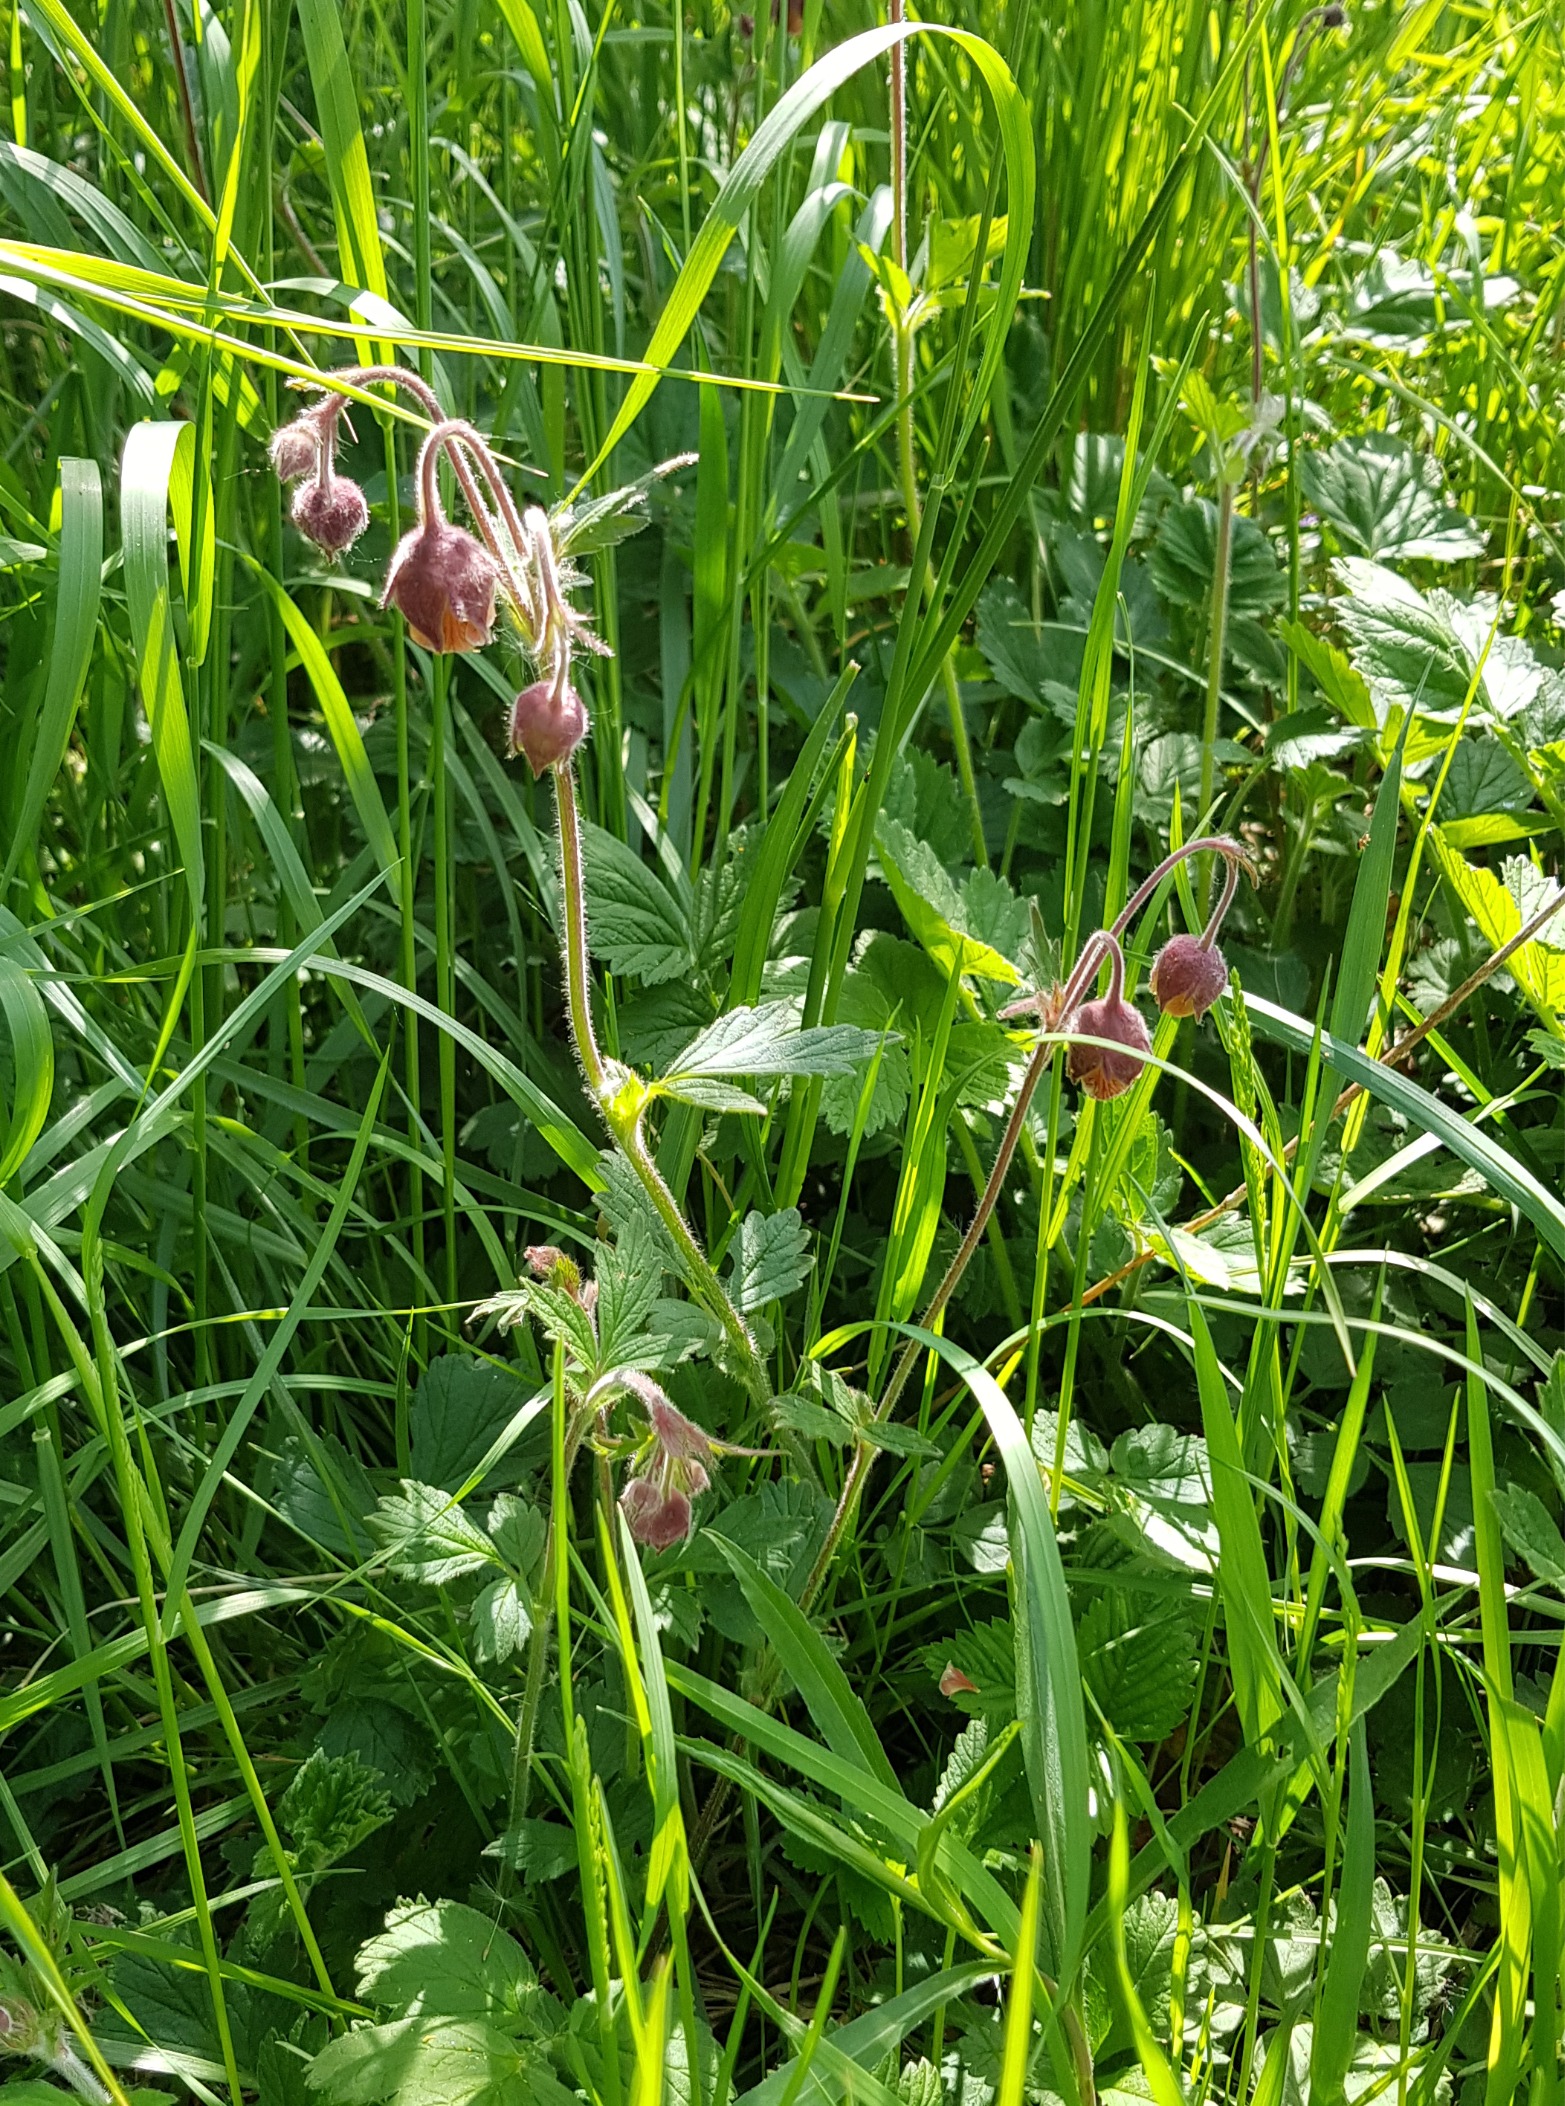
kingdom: Plantae
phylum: Tracheophyta
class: Magnoliopsida
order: Rosales
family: Rosaceae
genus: Geum
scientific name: Geum rivale
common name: Eng-nellikerod
